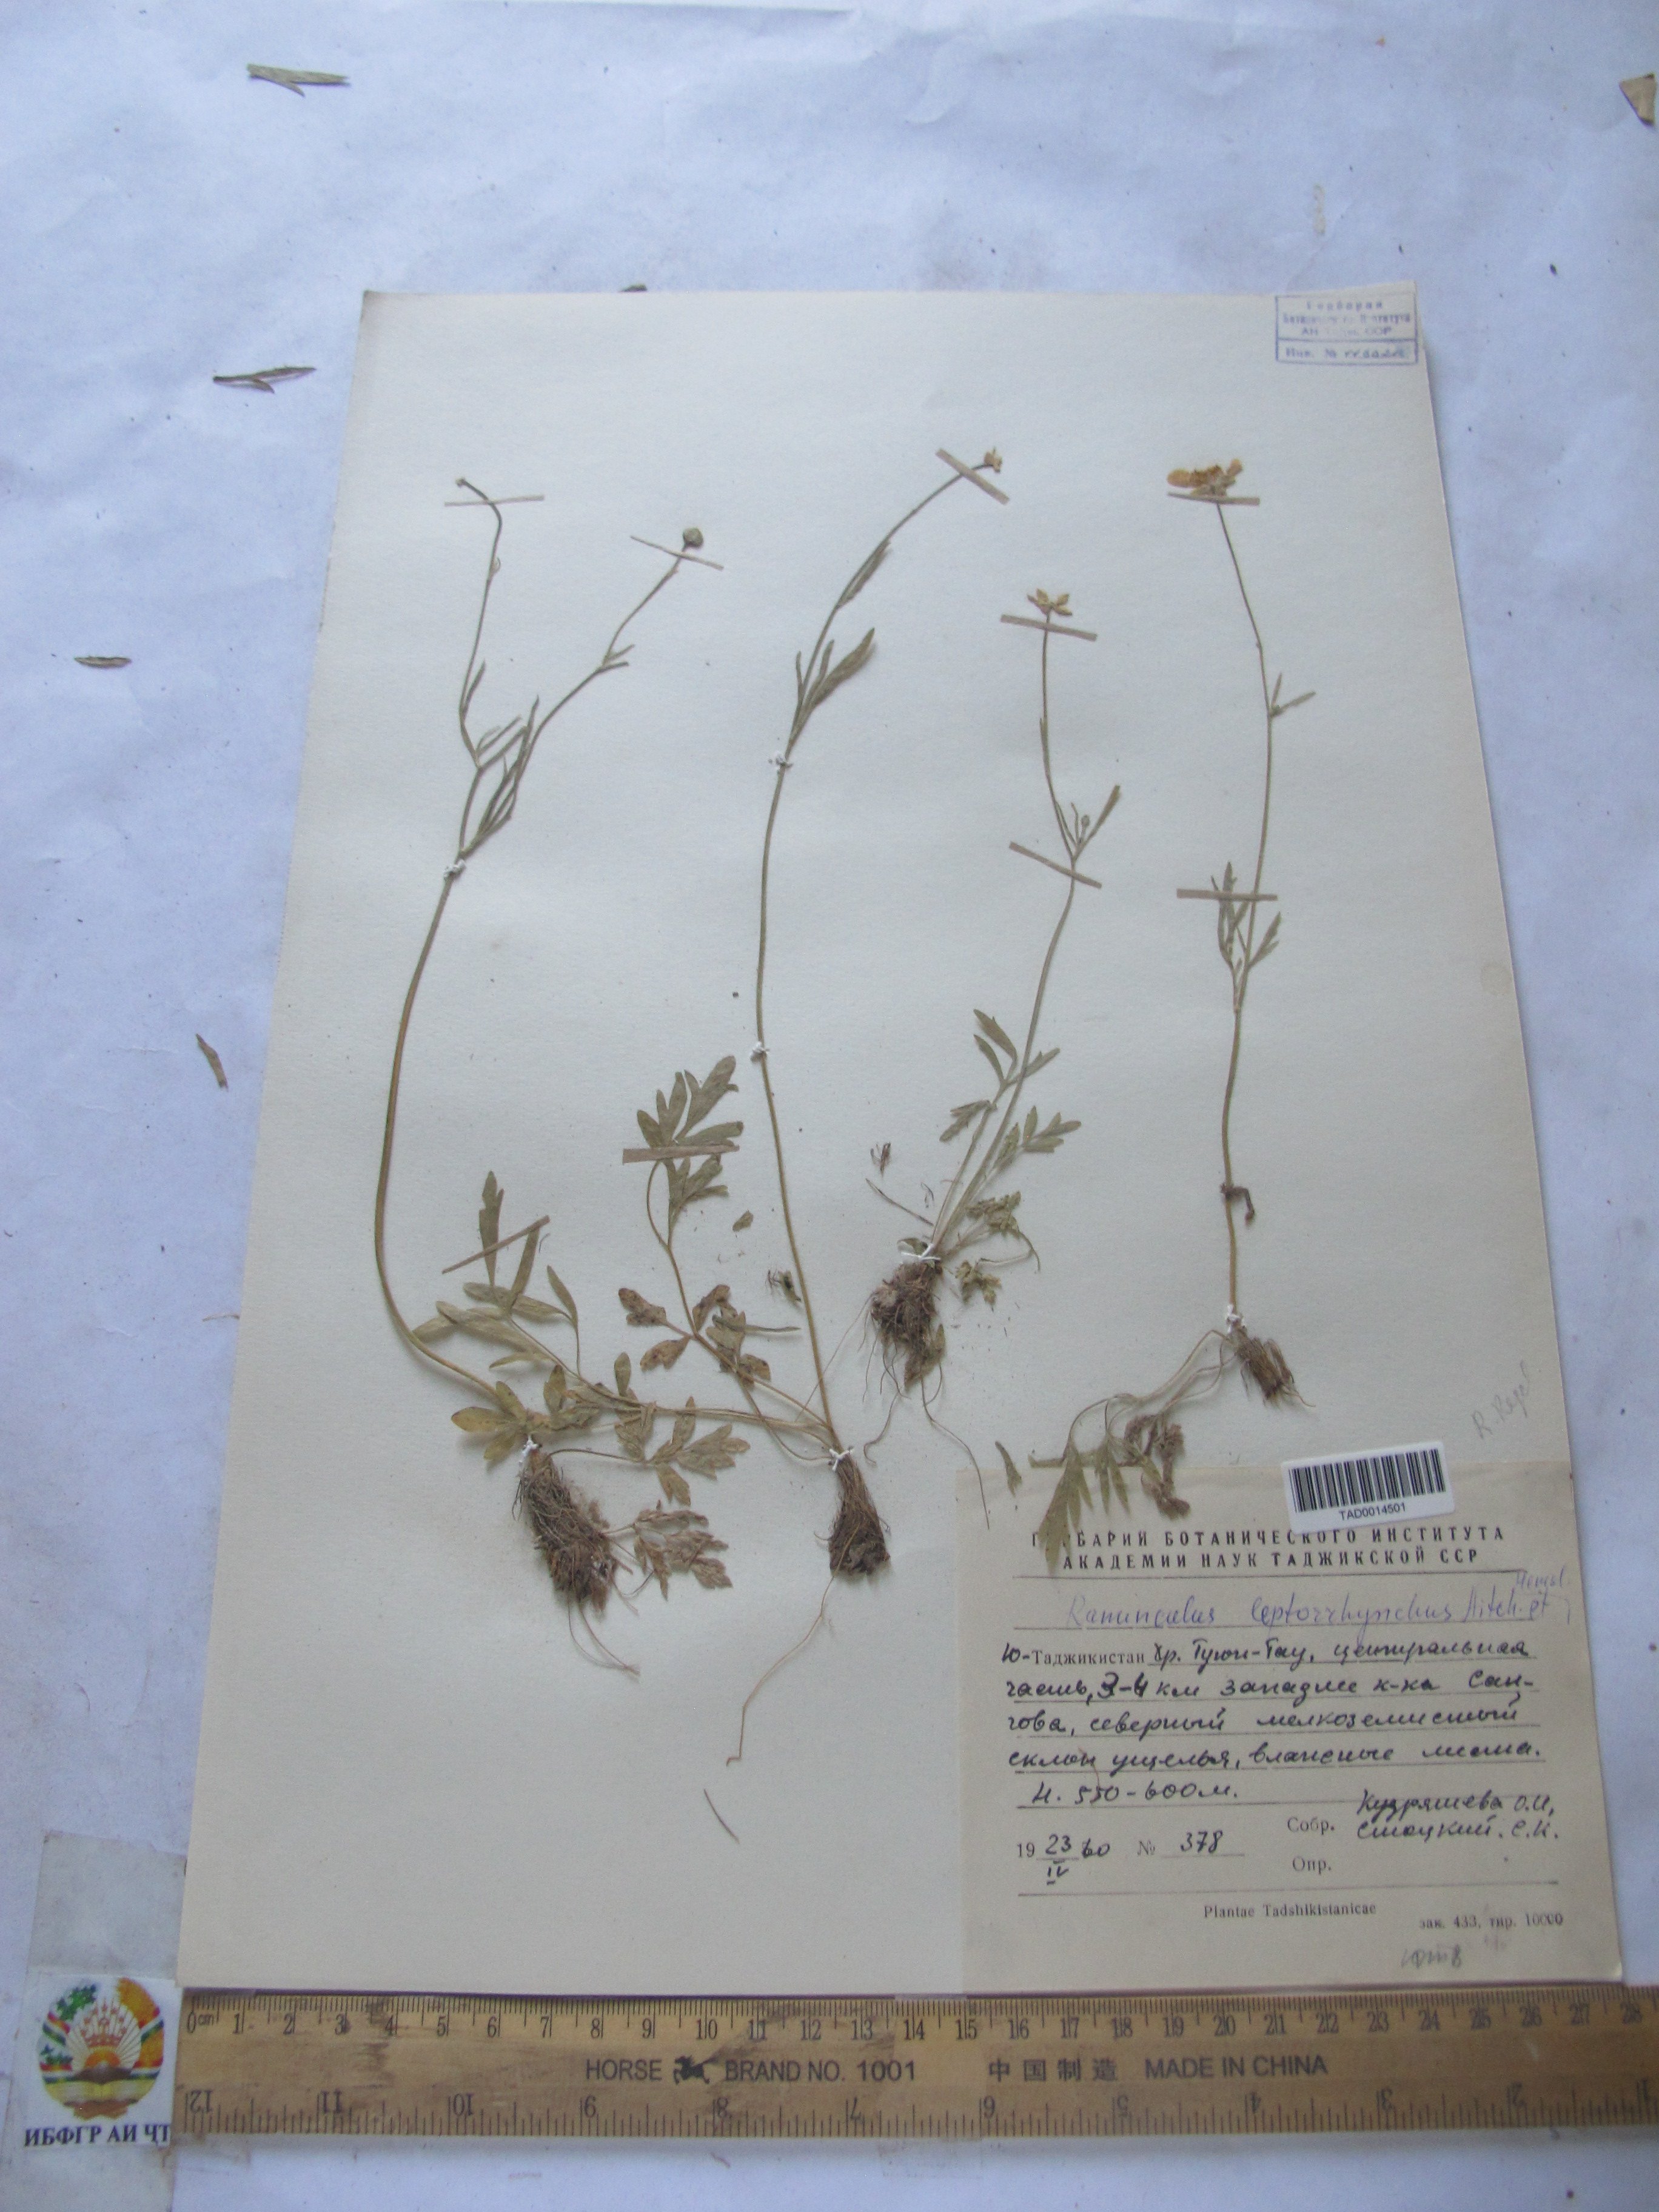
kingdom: Plantae
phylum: Tracheophyta
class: Magnoliopsida
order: Ranunculales
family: Ranunculaceae
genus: Ranunculus
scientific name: Ranunculus leptorrhynchus
